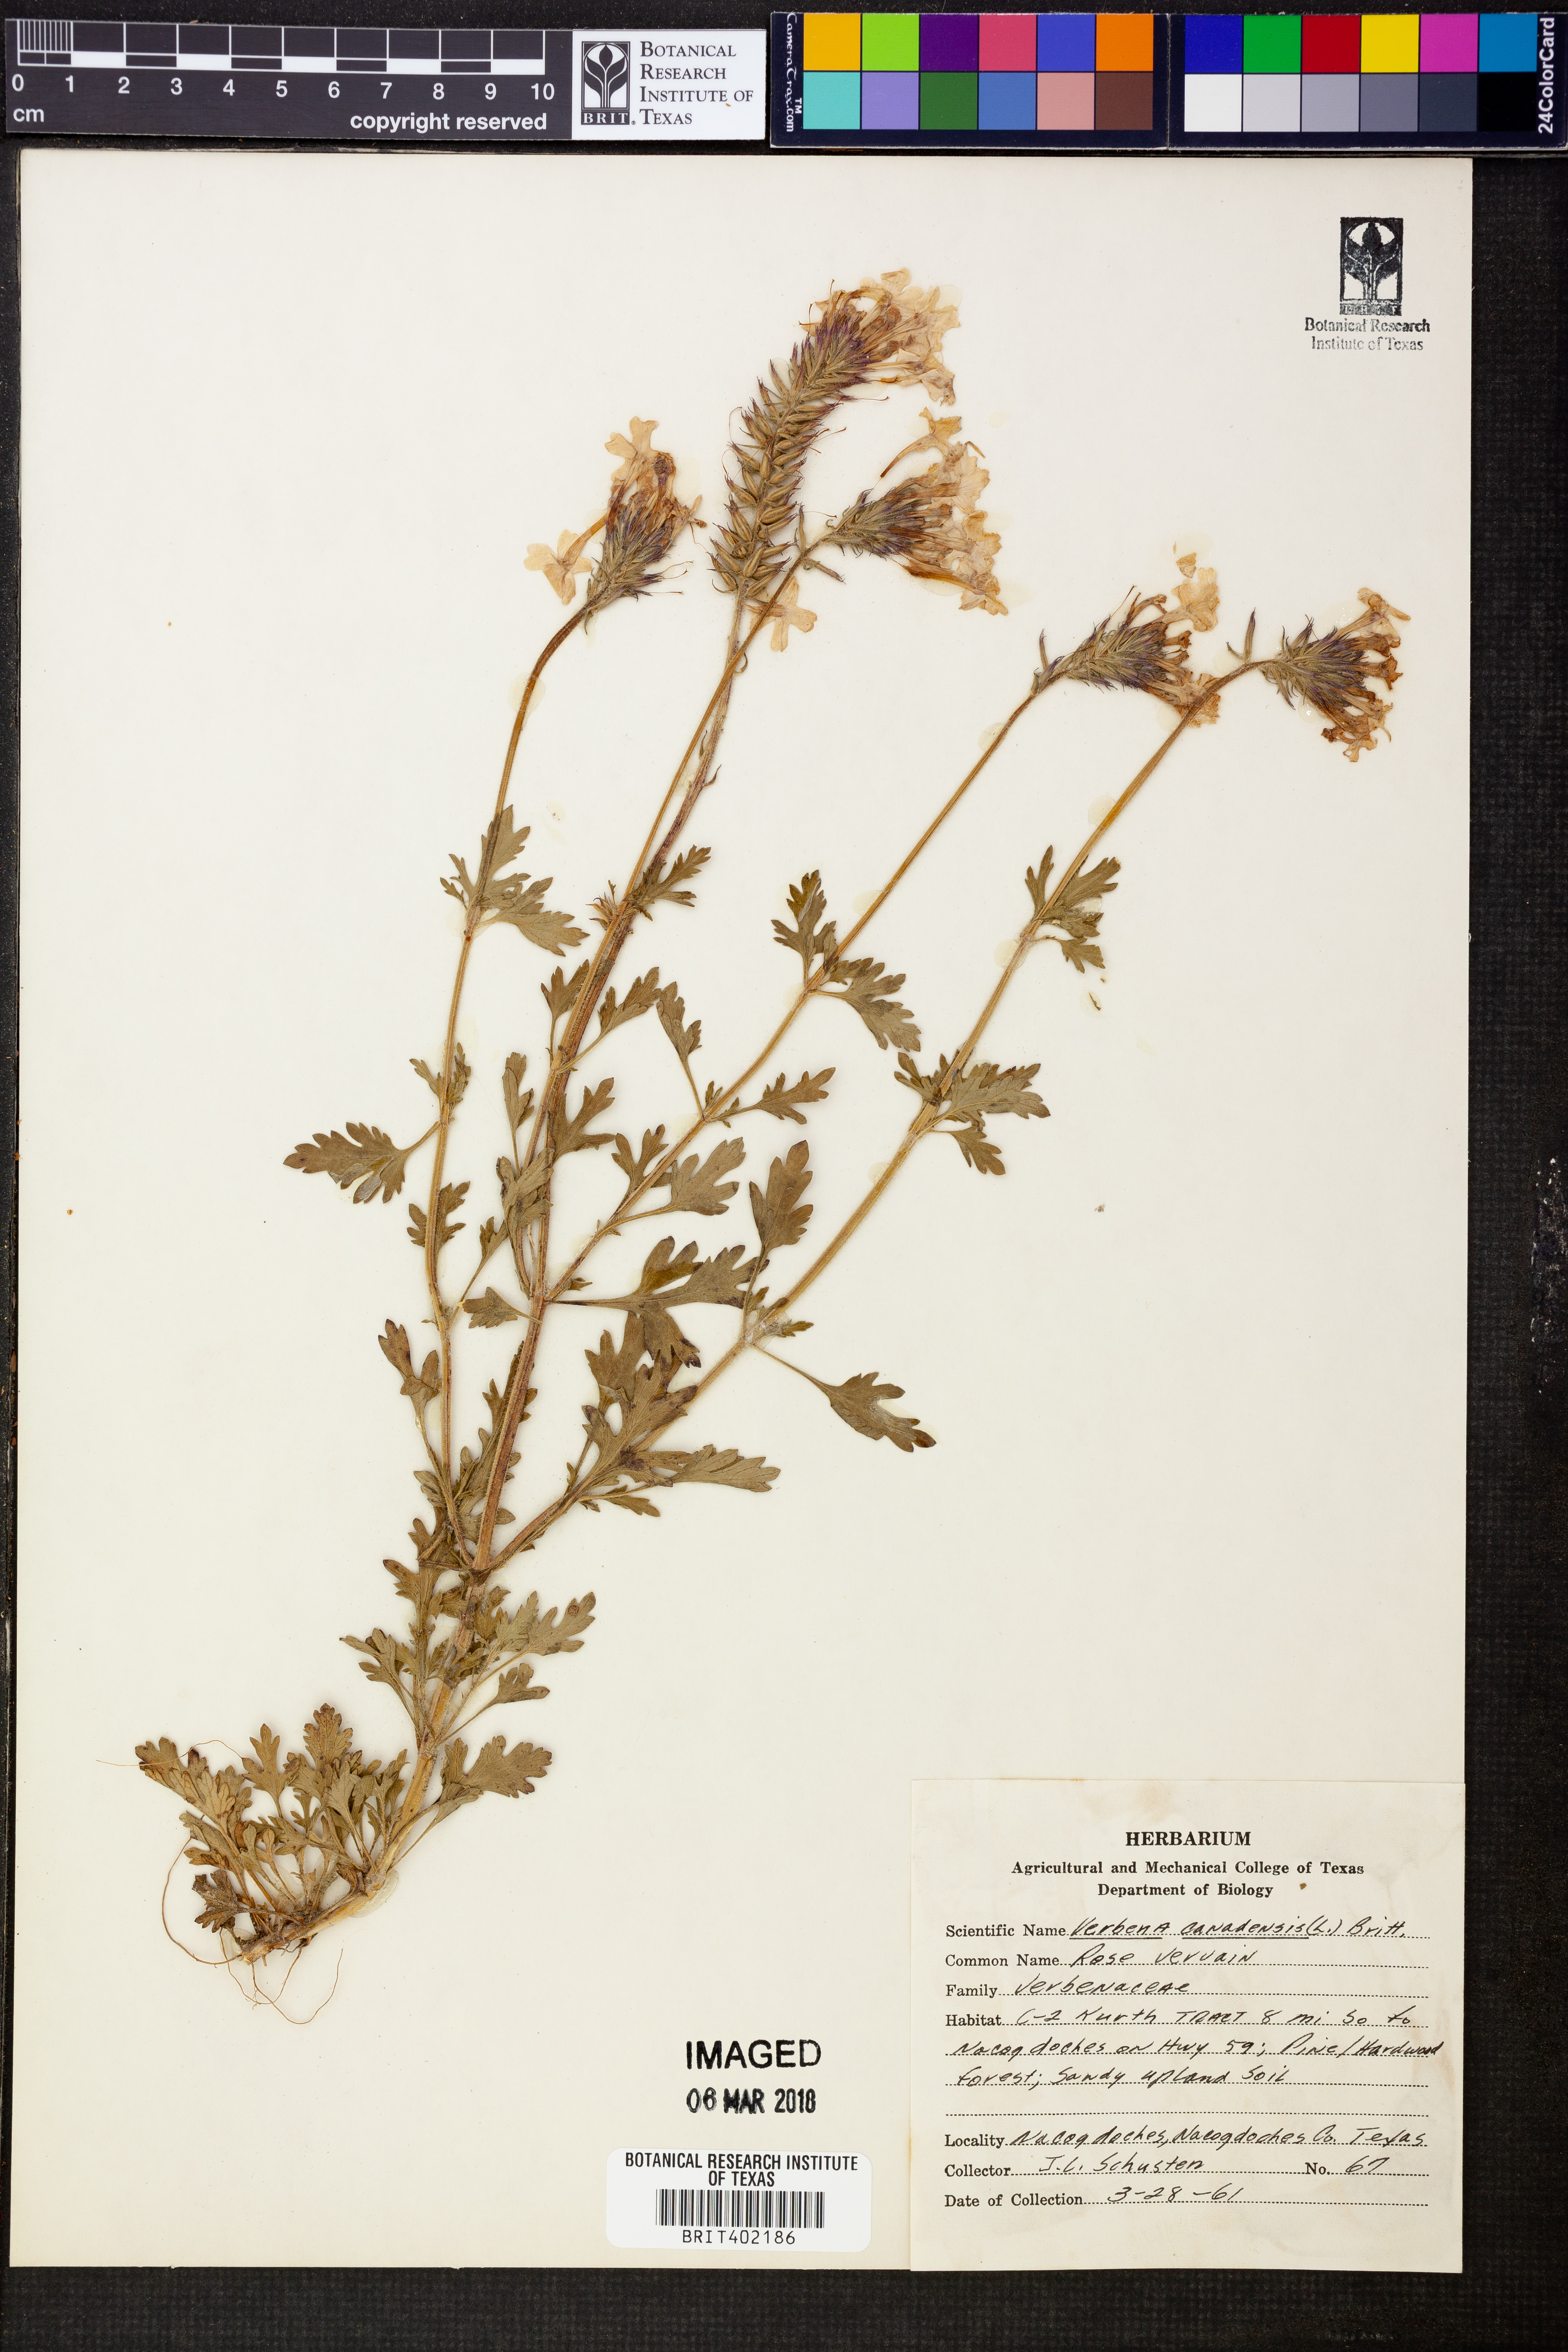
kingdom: Plantae
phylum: Tracheophyta
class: Magnoliopsida
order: Lamiales
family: Verbenaceae
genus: Verbena
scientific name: Verbena canadensis
